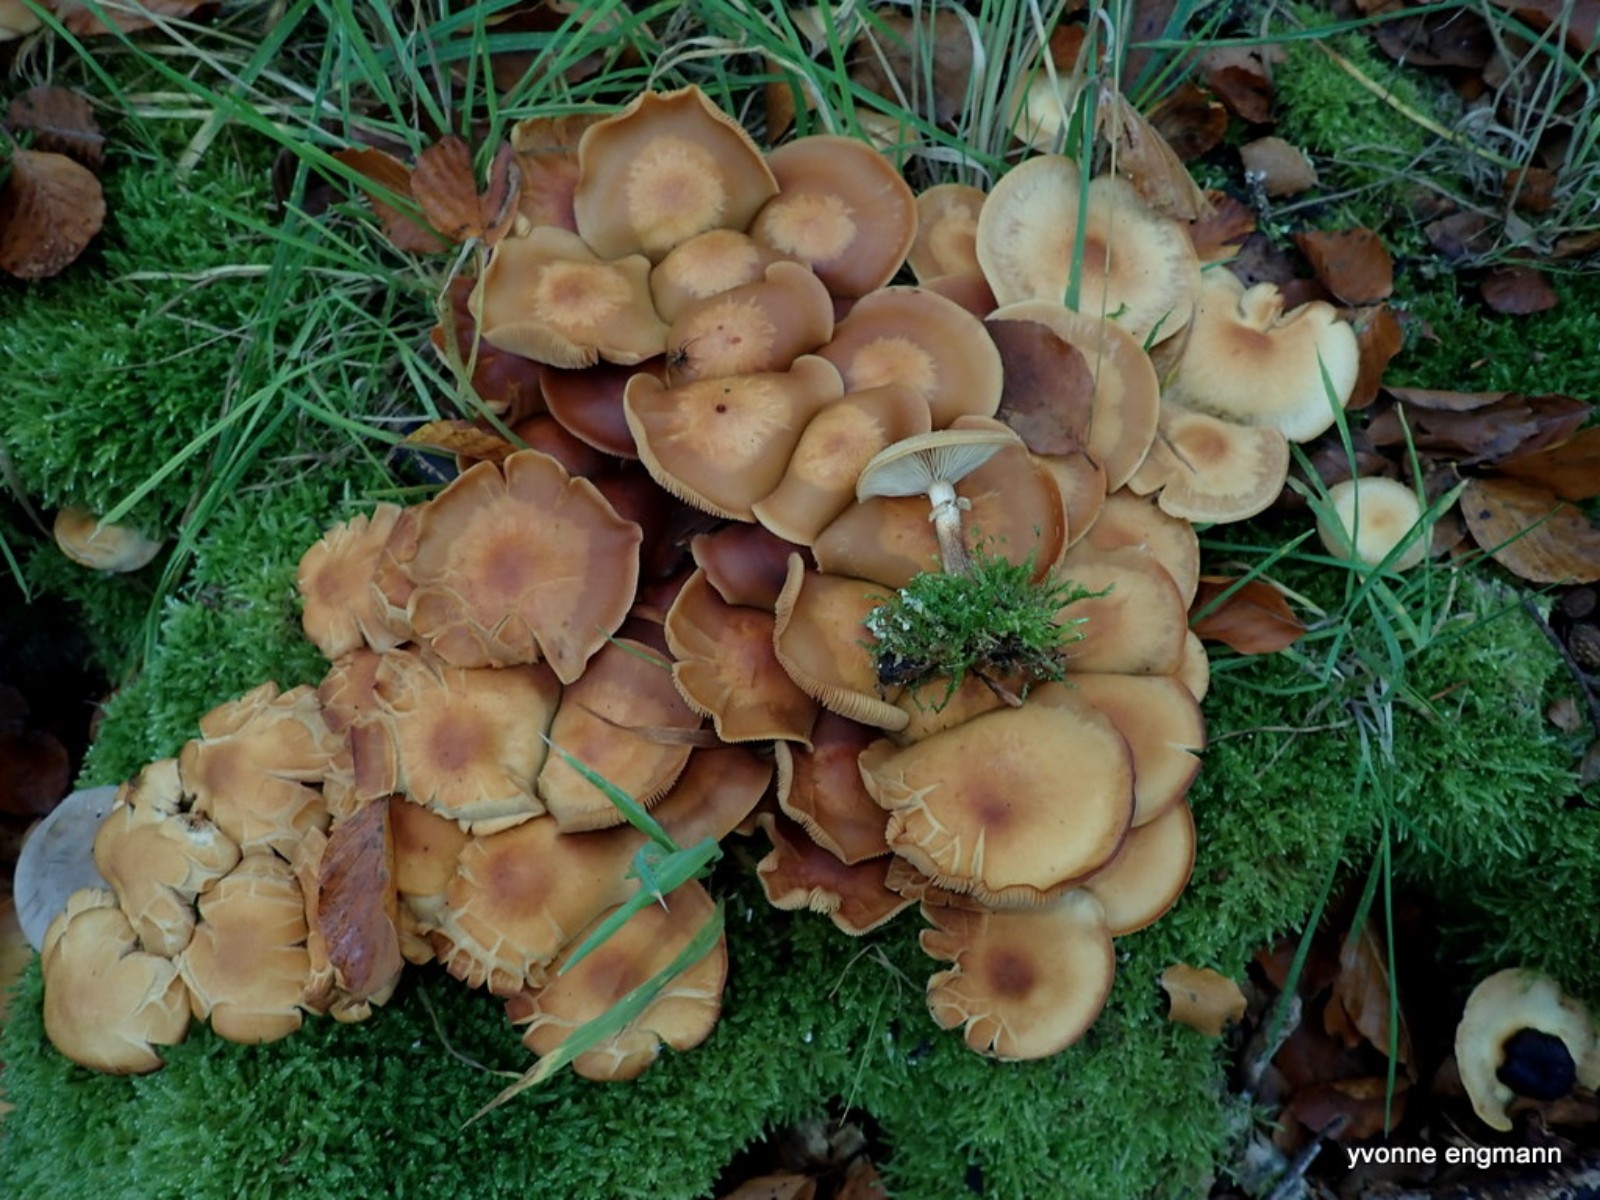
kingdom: Fungi
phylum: Basidiomycota
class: Agaricomycetes
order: Agaricales
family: Strophariaceae
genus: Kuehneromyces
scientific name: Kuehneromyces mutabilis
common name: foranderlig skælhat
